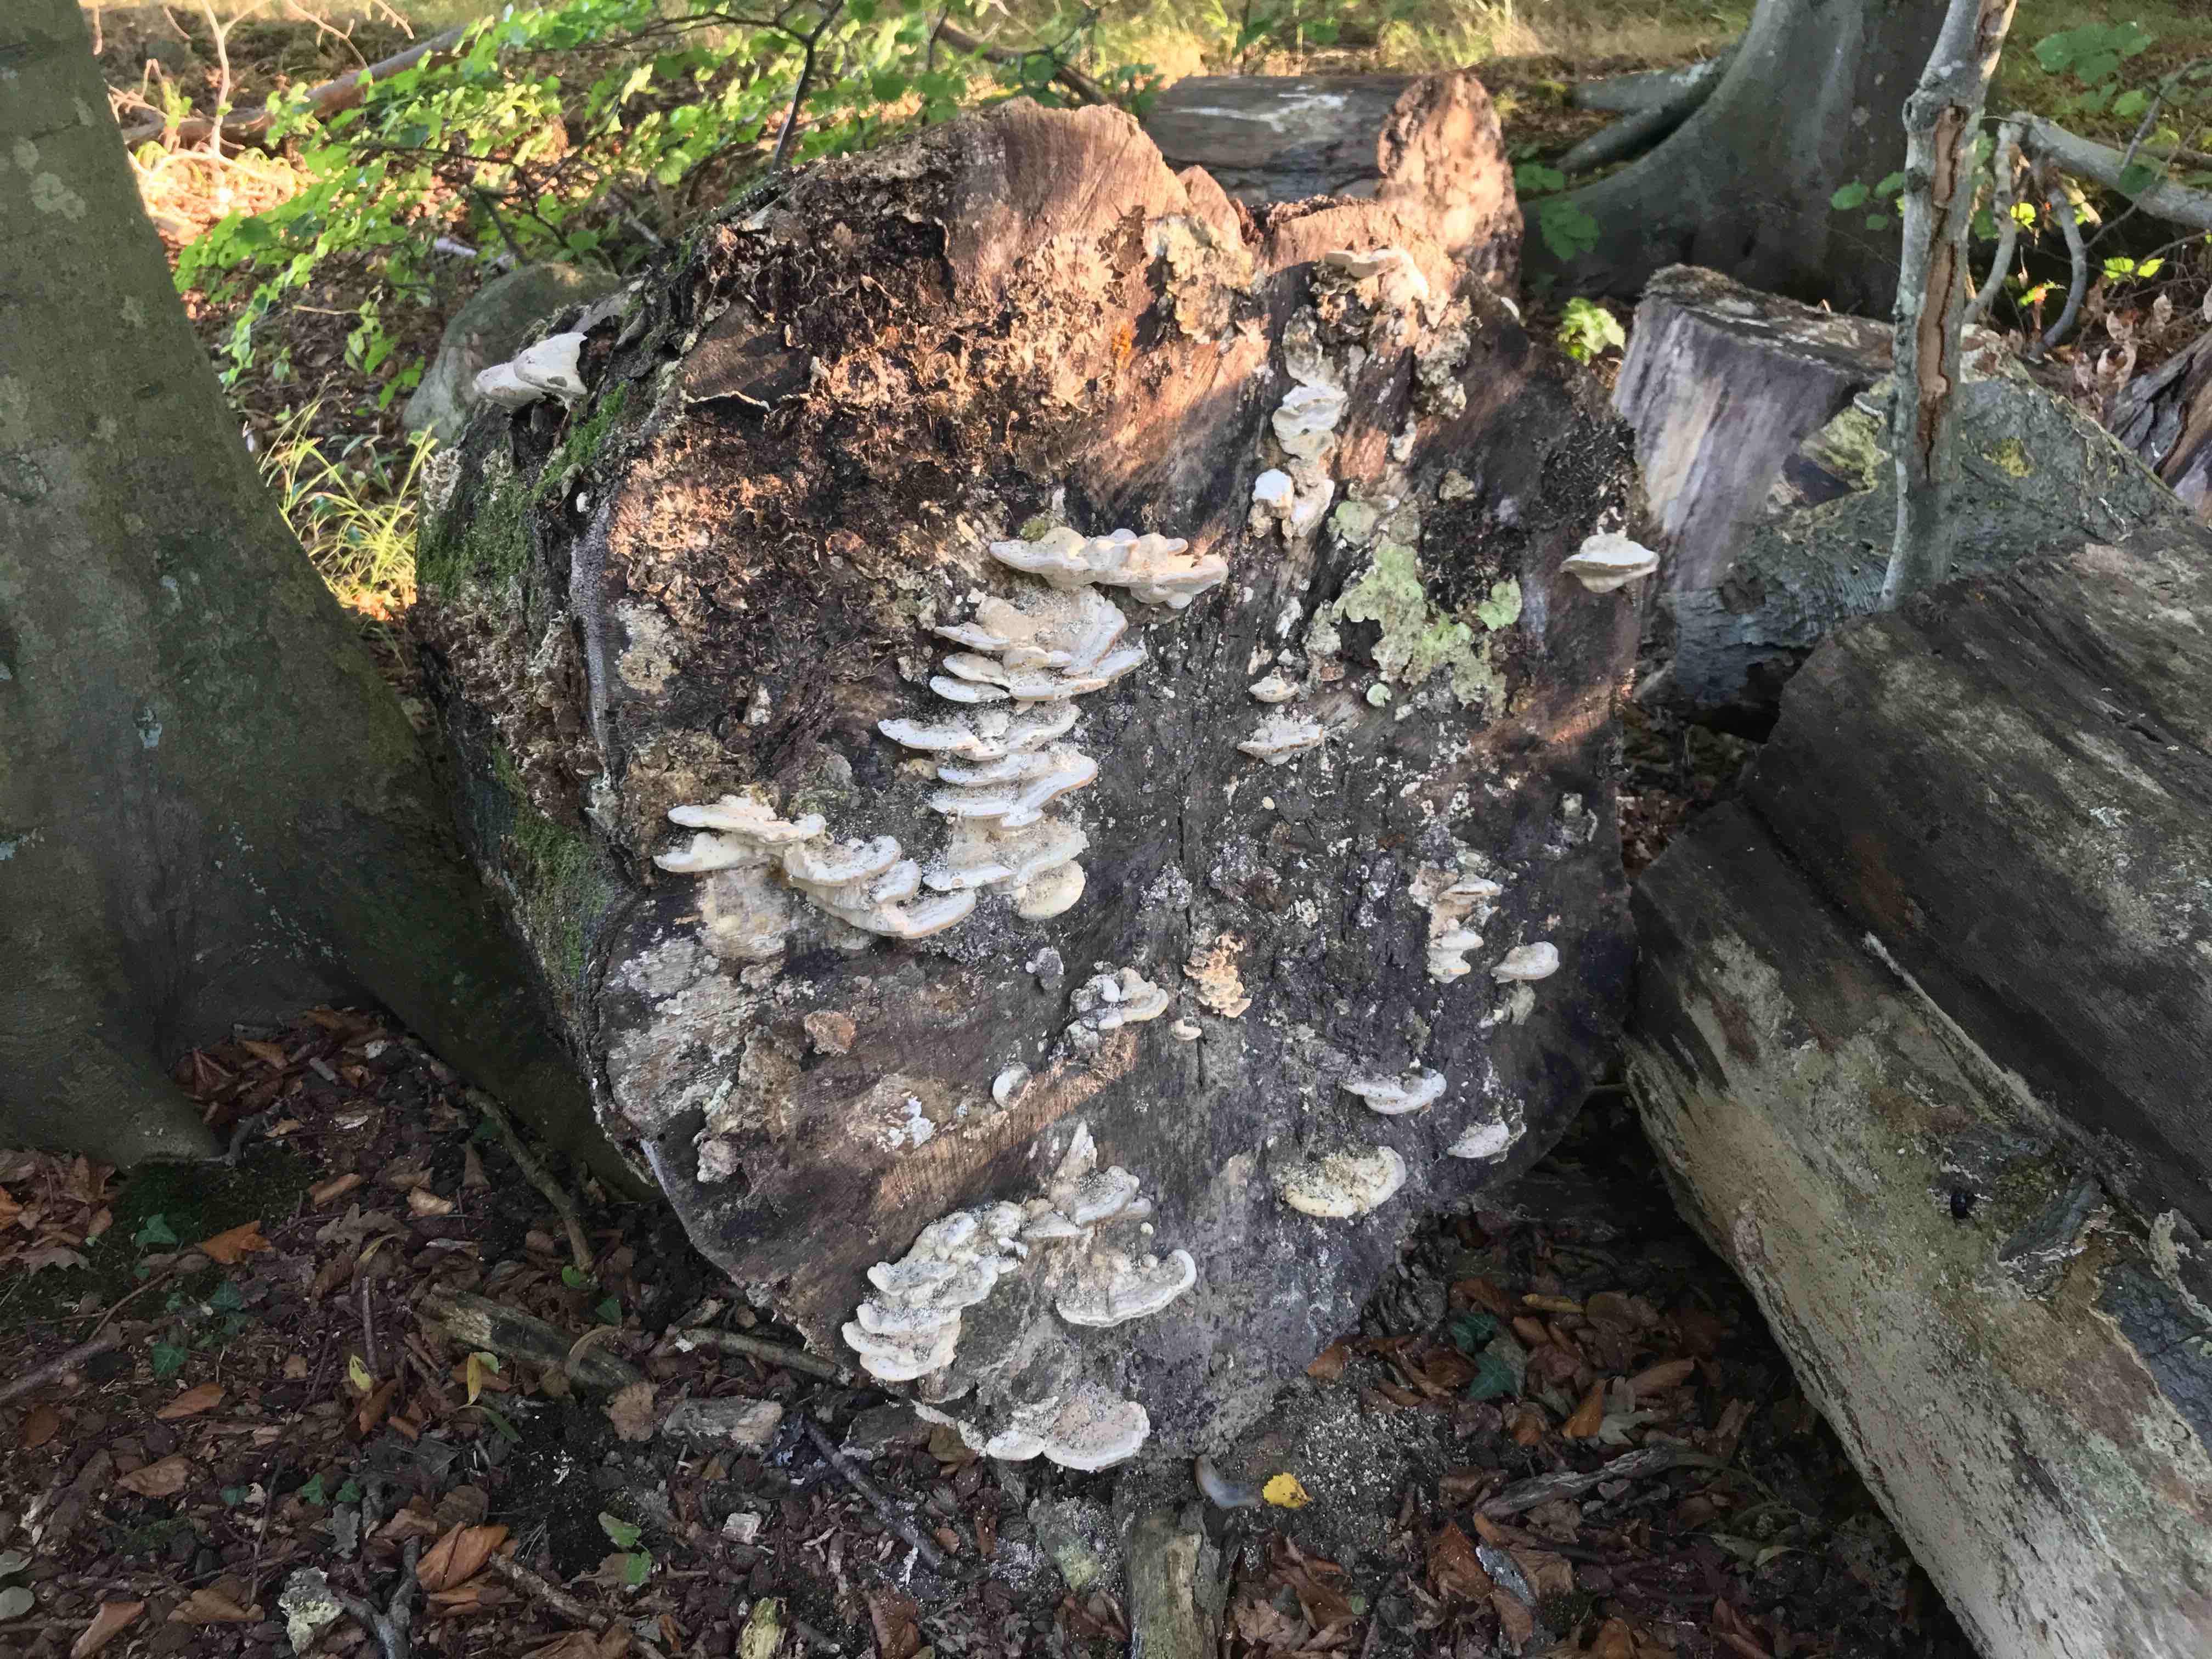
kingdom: Fungi
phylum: Basidiomycota
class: Agaricomycetes
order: Polyporales
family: Polyporaceae
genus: Trametes
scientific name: Trametes gibbosa
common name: puklet læderporesvamp
